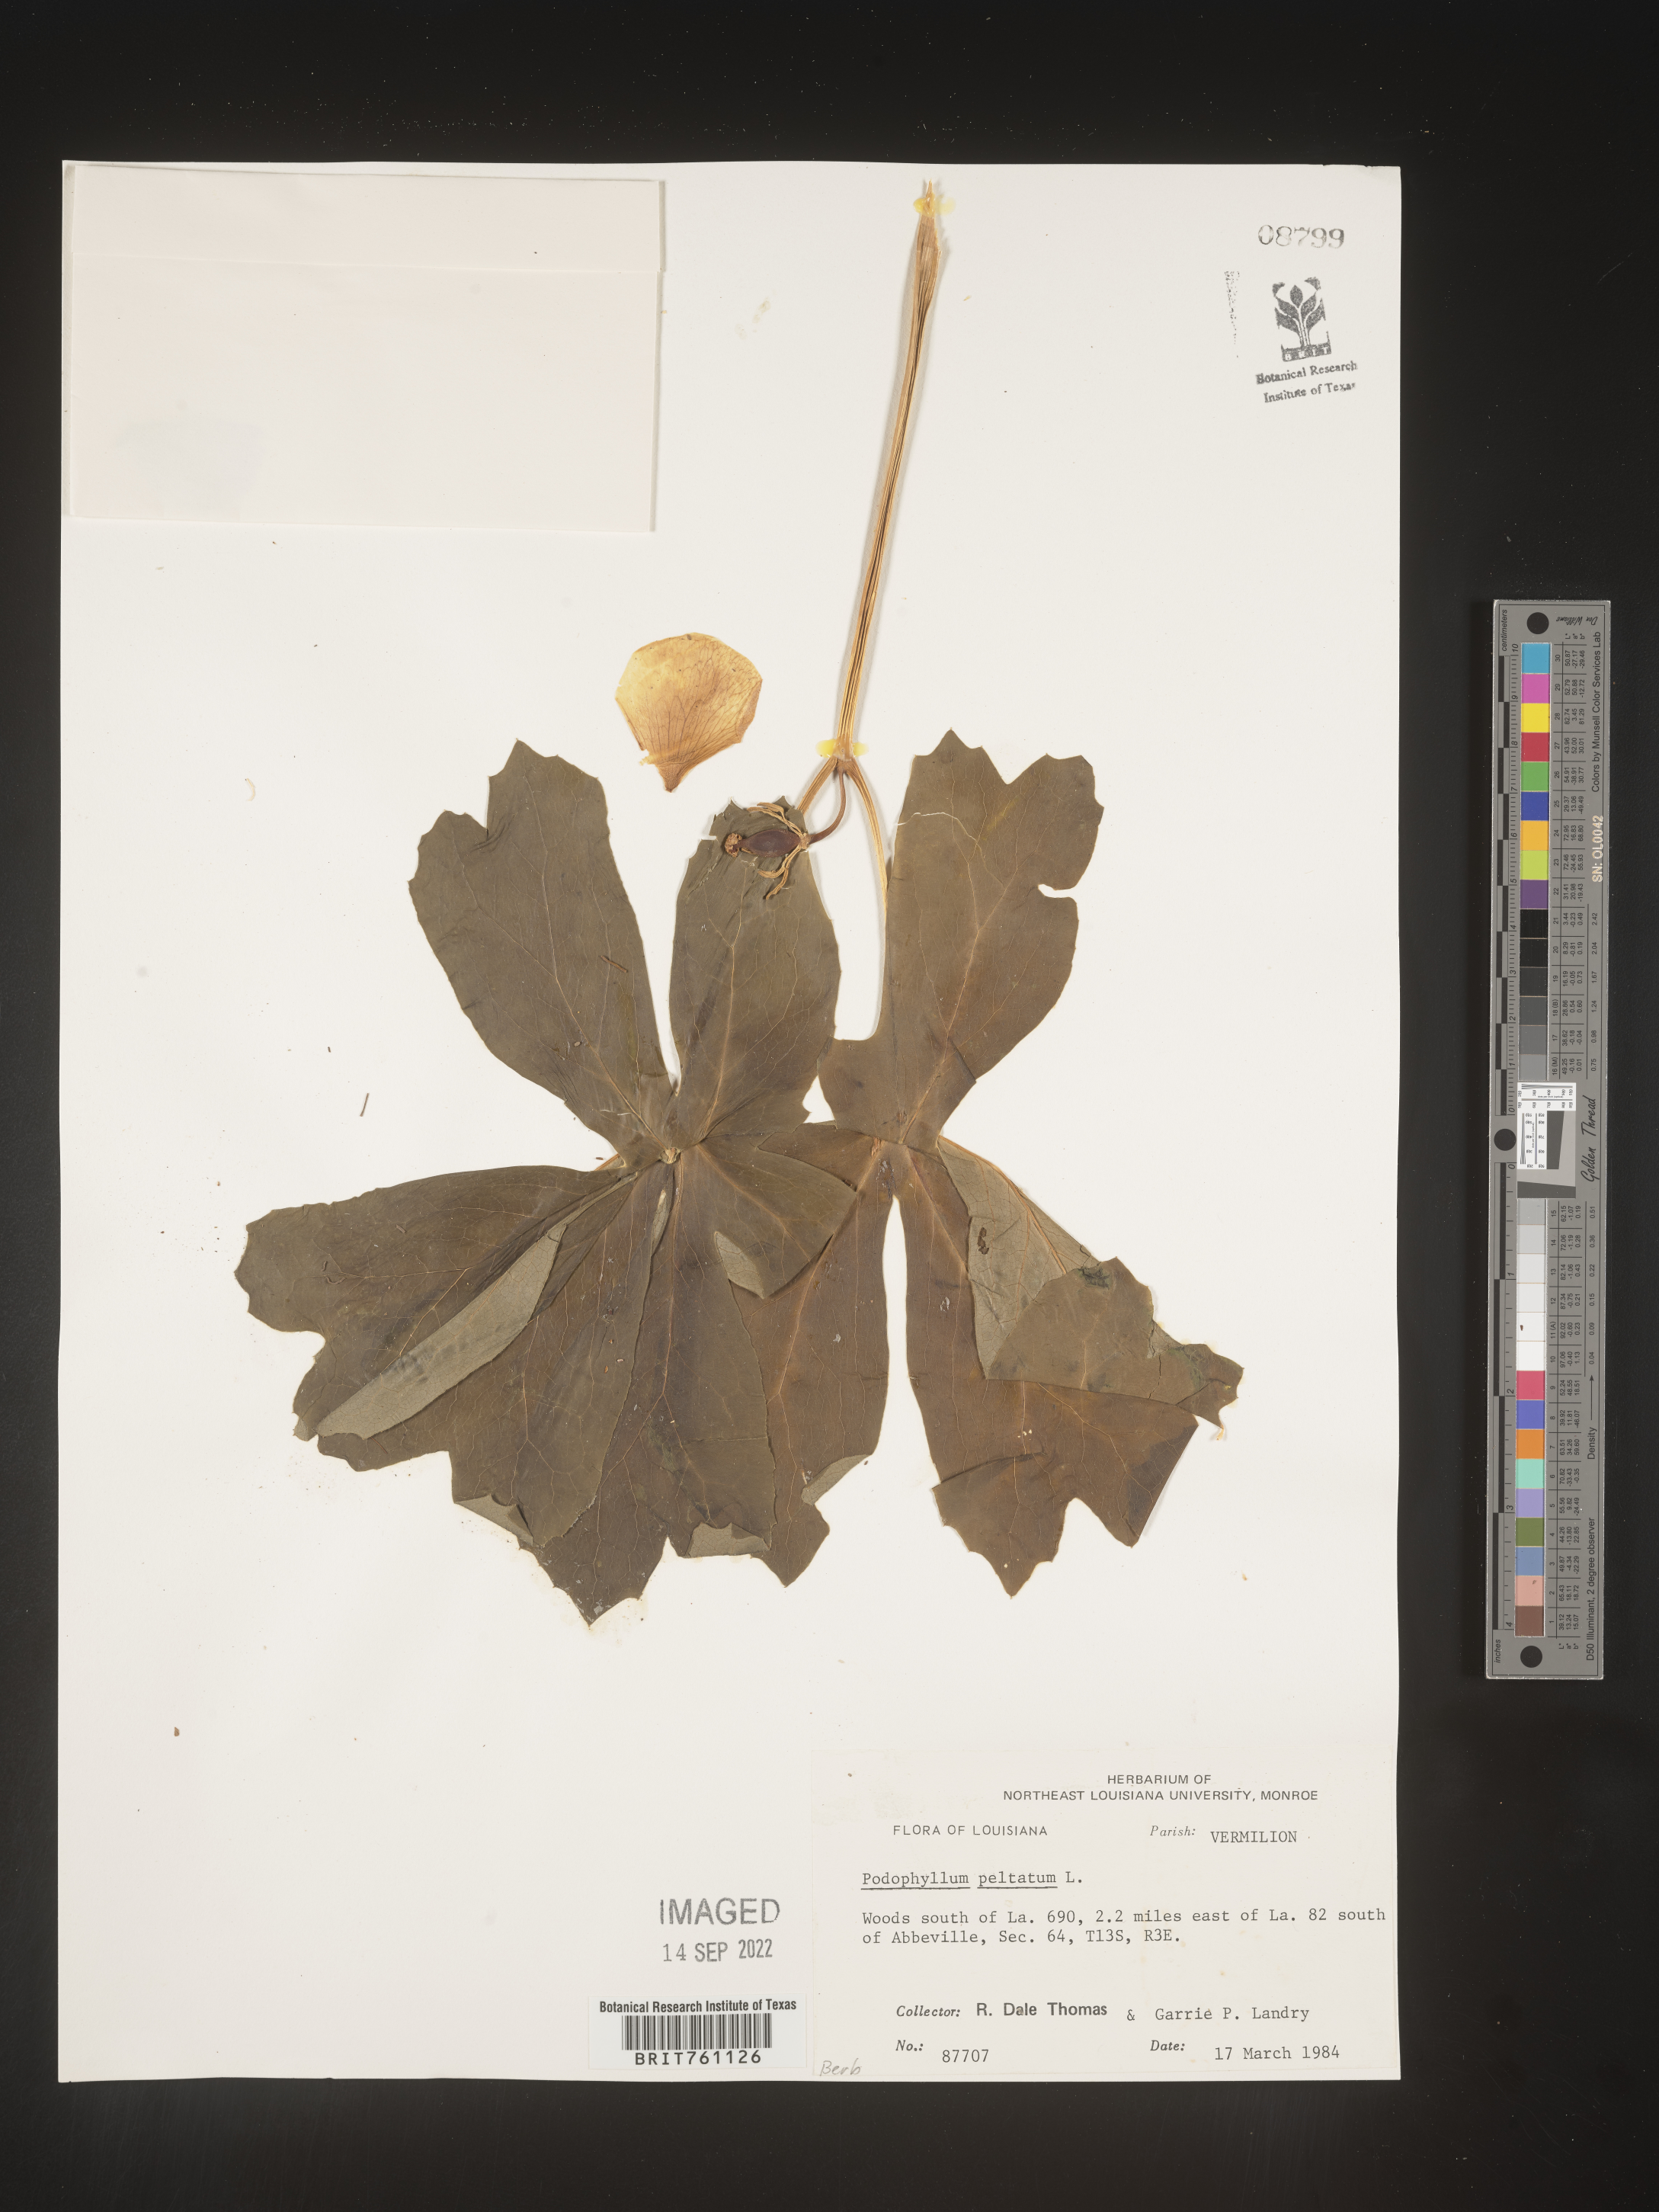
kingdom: Plantae
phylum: Tracheophyta
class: Magnoliopsida
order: Ranunculales
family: Berberidaceae
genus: Podophyllum
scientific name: Podophyllum peltatum
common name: Wild mandrake
